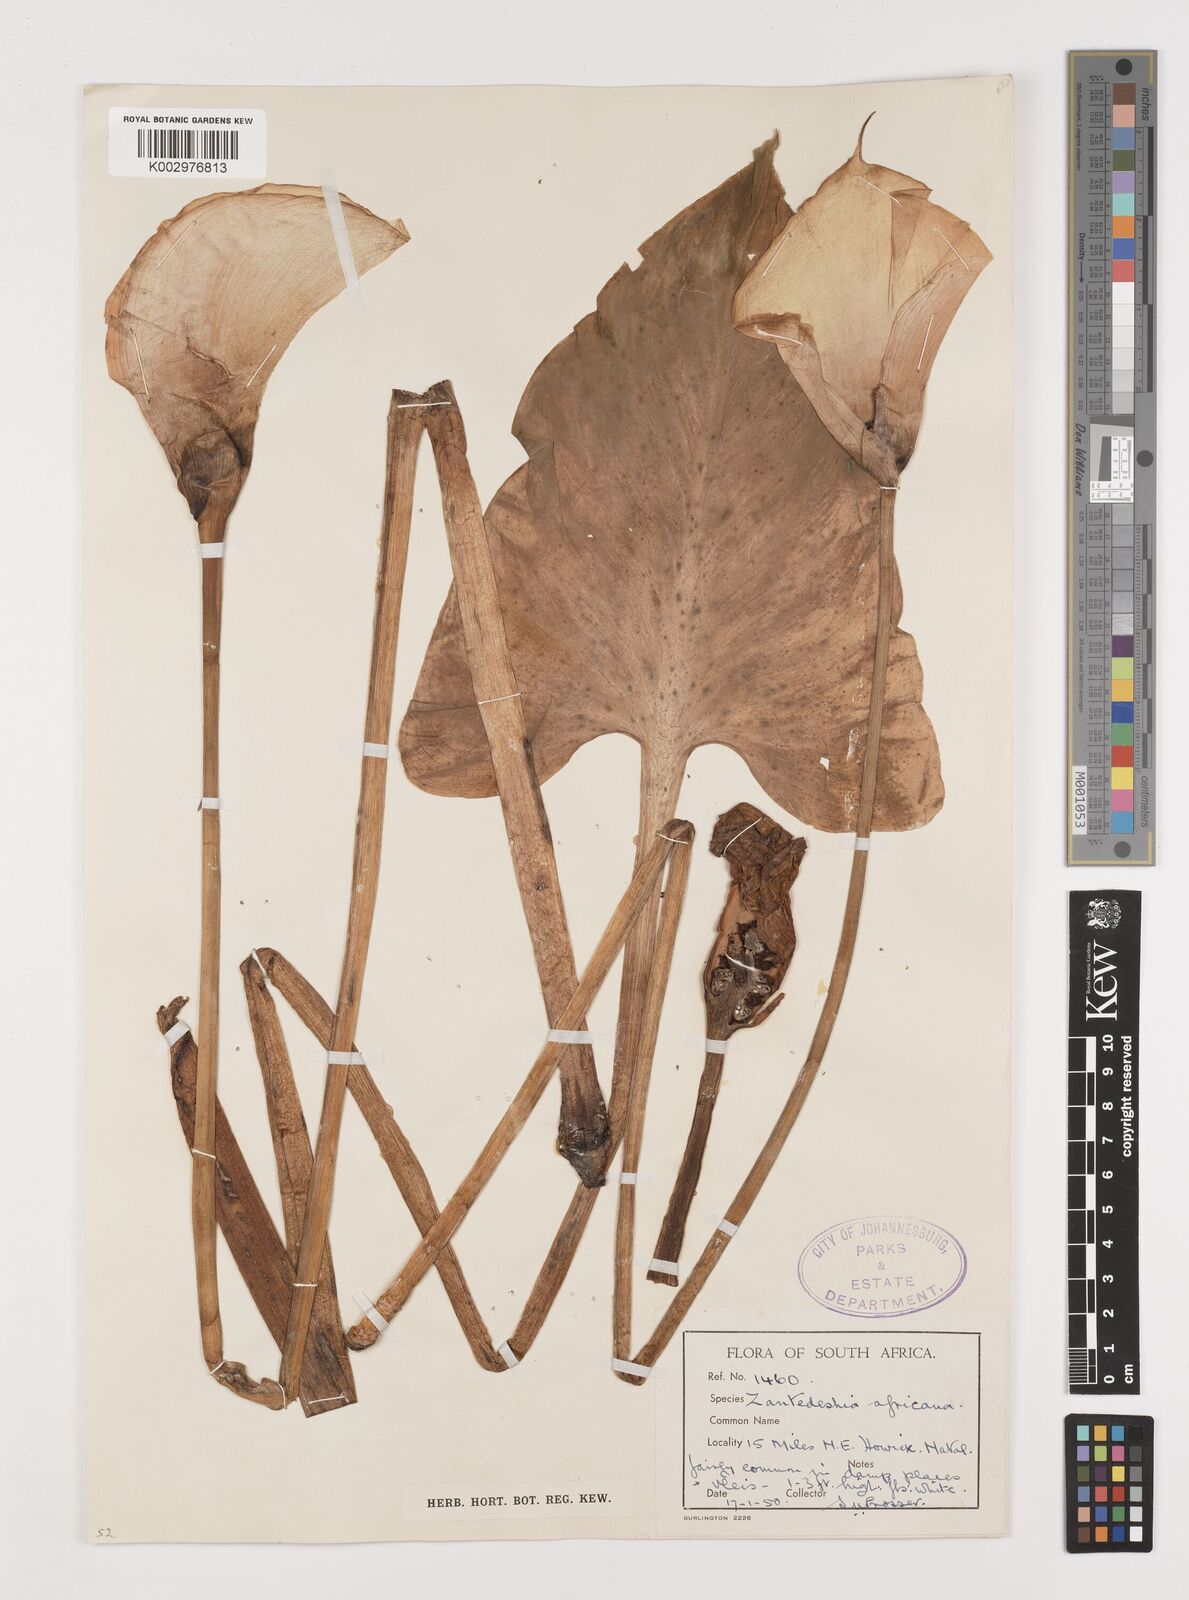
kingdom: Plantae
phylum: Tracheophyta
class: Liliopsida
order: Alismatales
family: Araceae
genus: Zantedeschia
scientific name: Zantedeschia aethiopica
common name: Altar-lily
